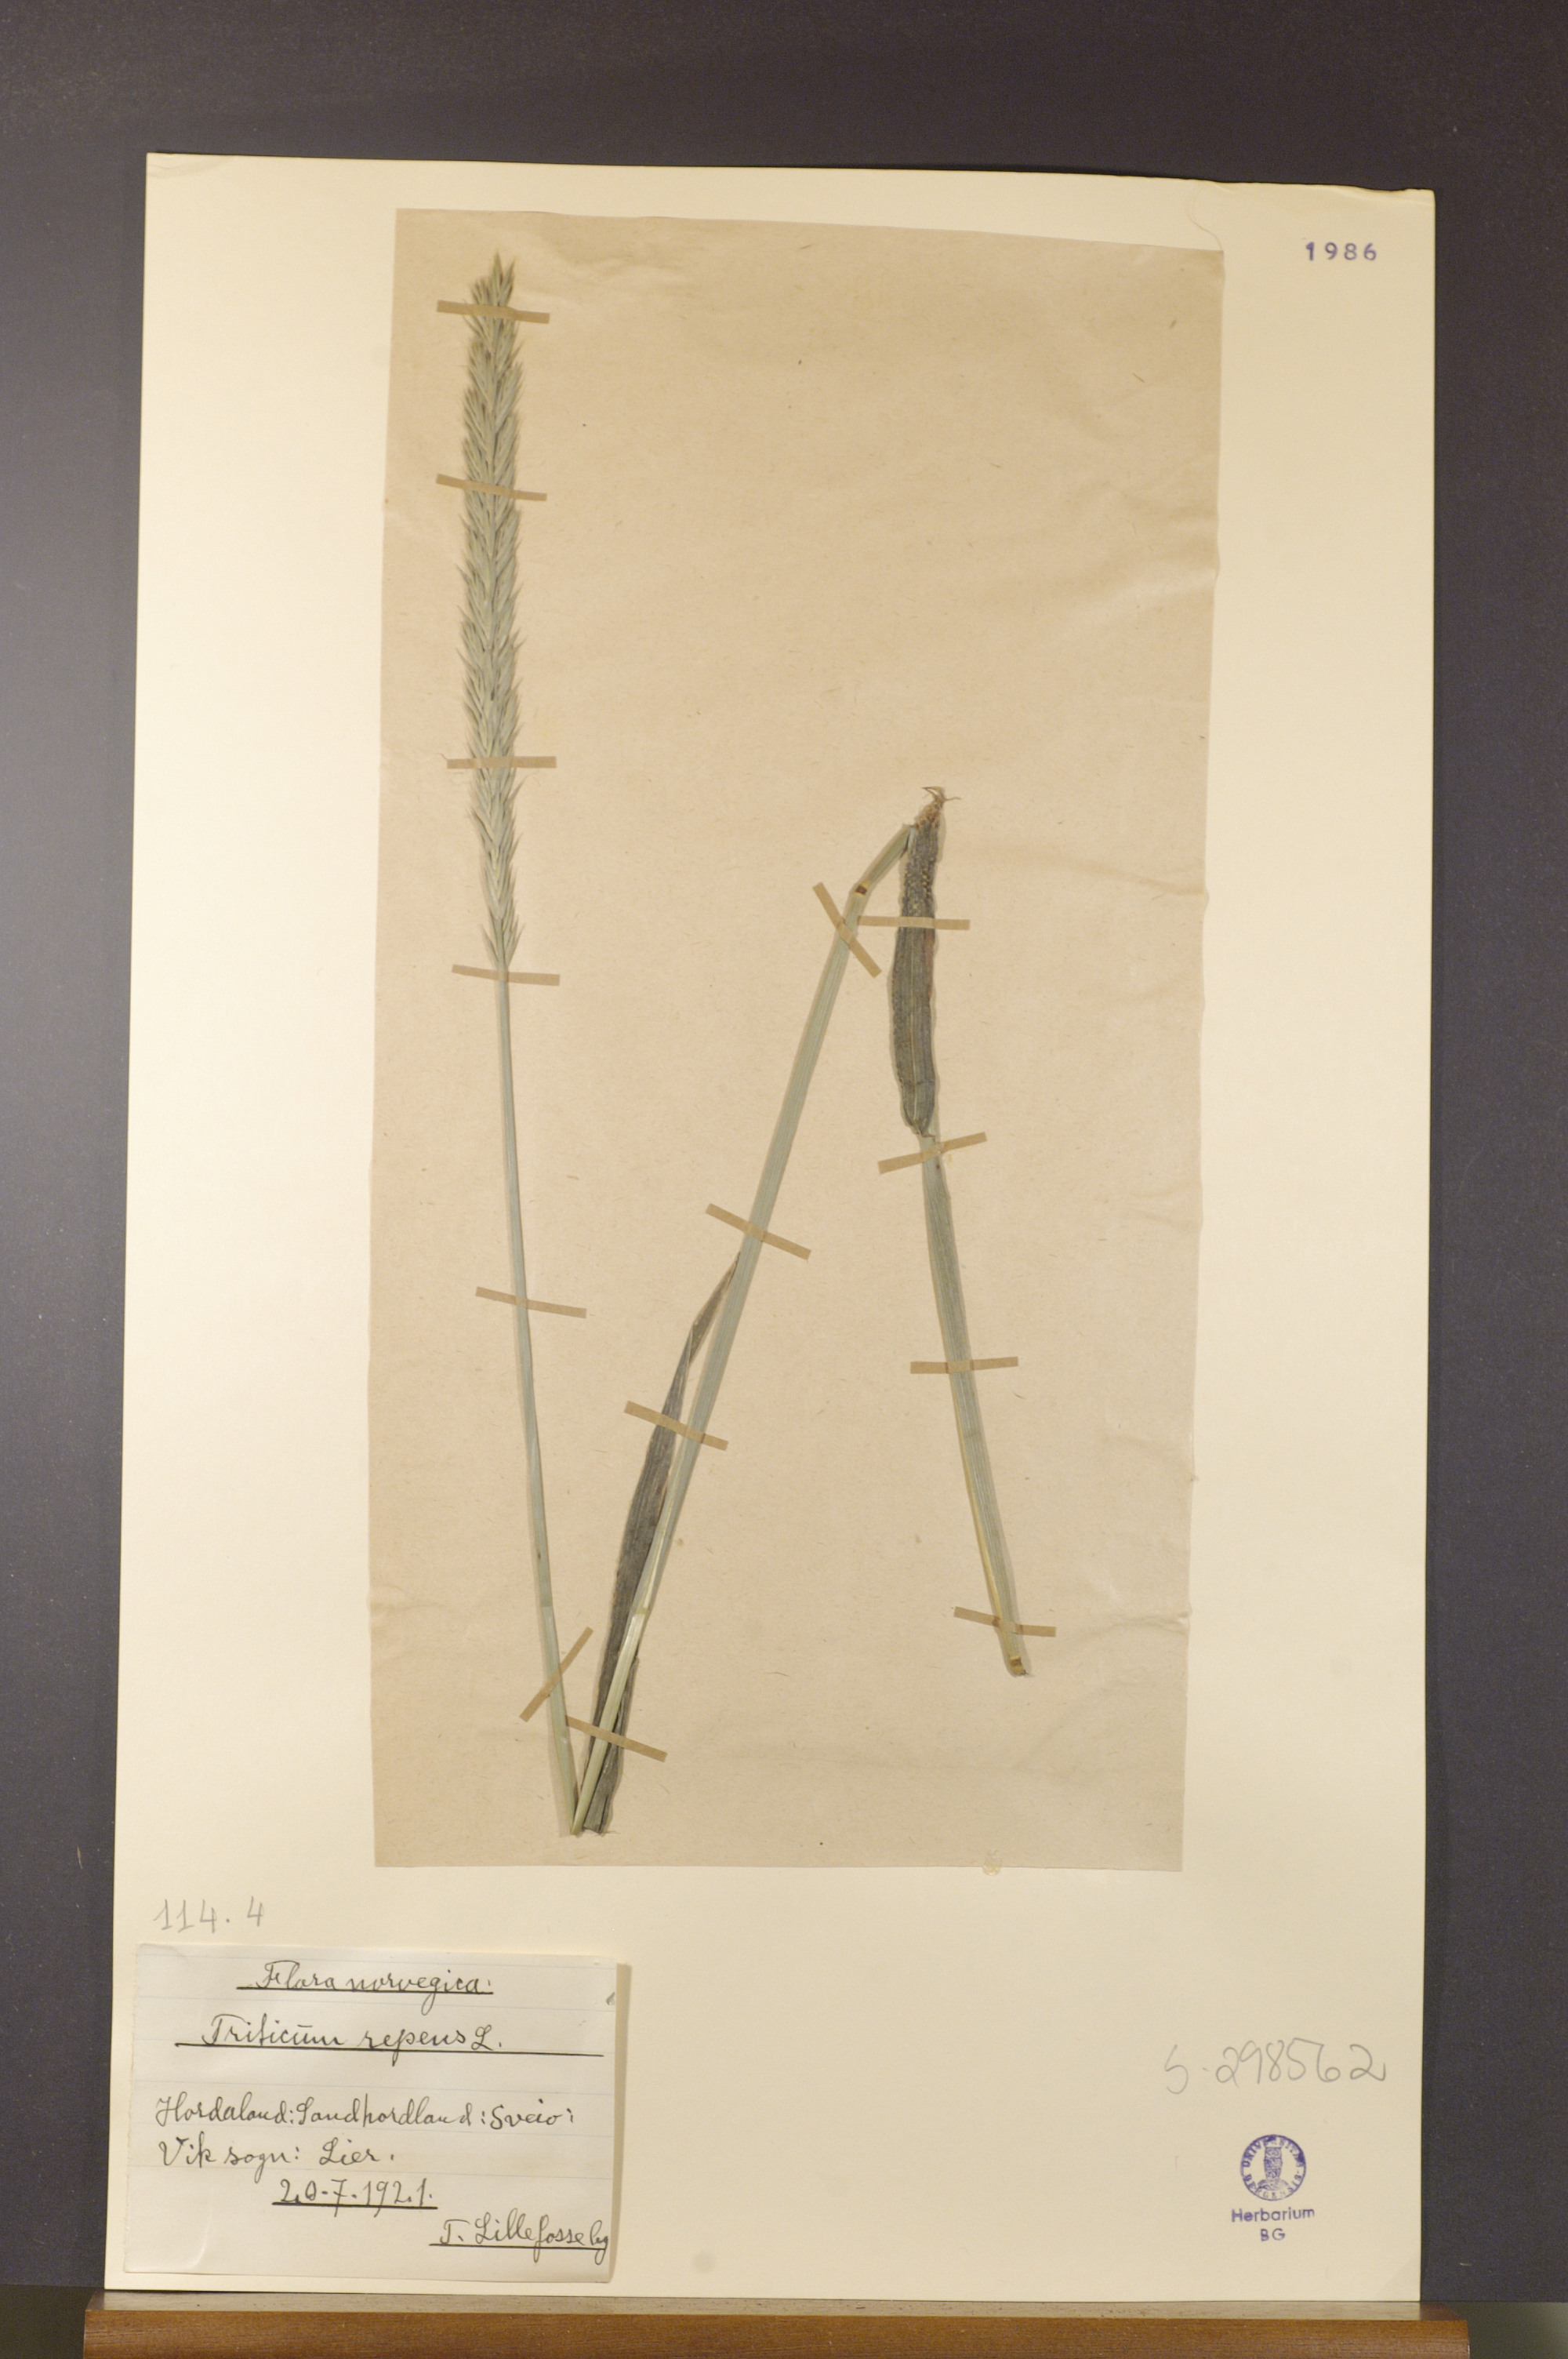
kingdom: Plantae
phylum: Tracheophyta
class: Liliopsida
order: Poales
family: Poaceae
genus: Elymus
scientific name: Elymus repens
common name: Quackgrass
